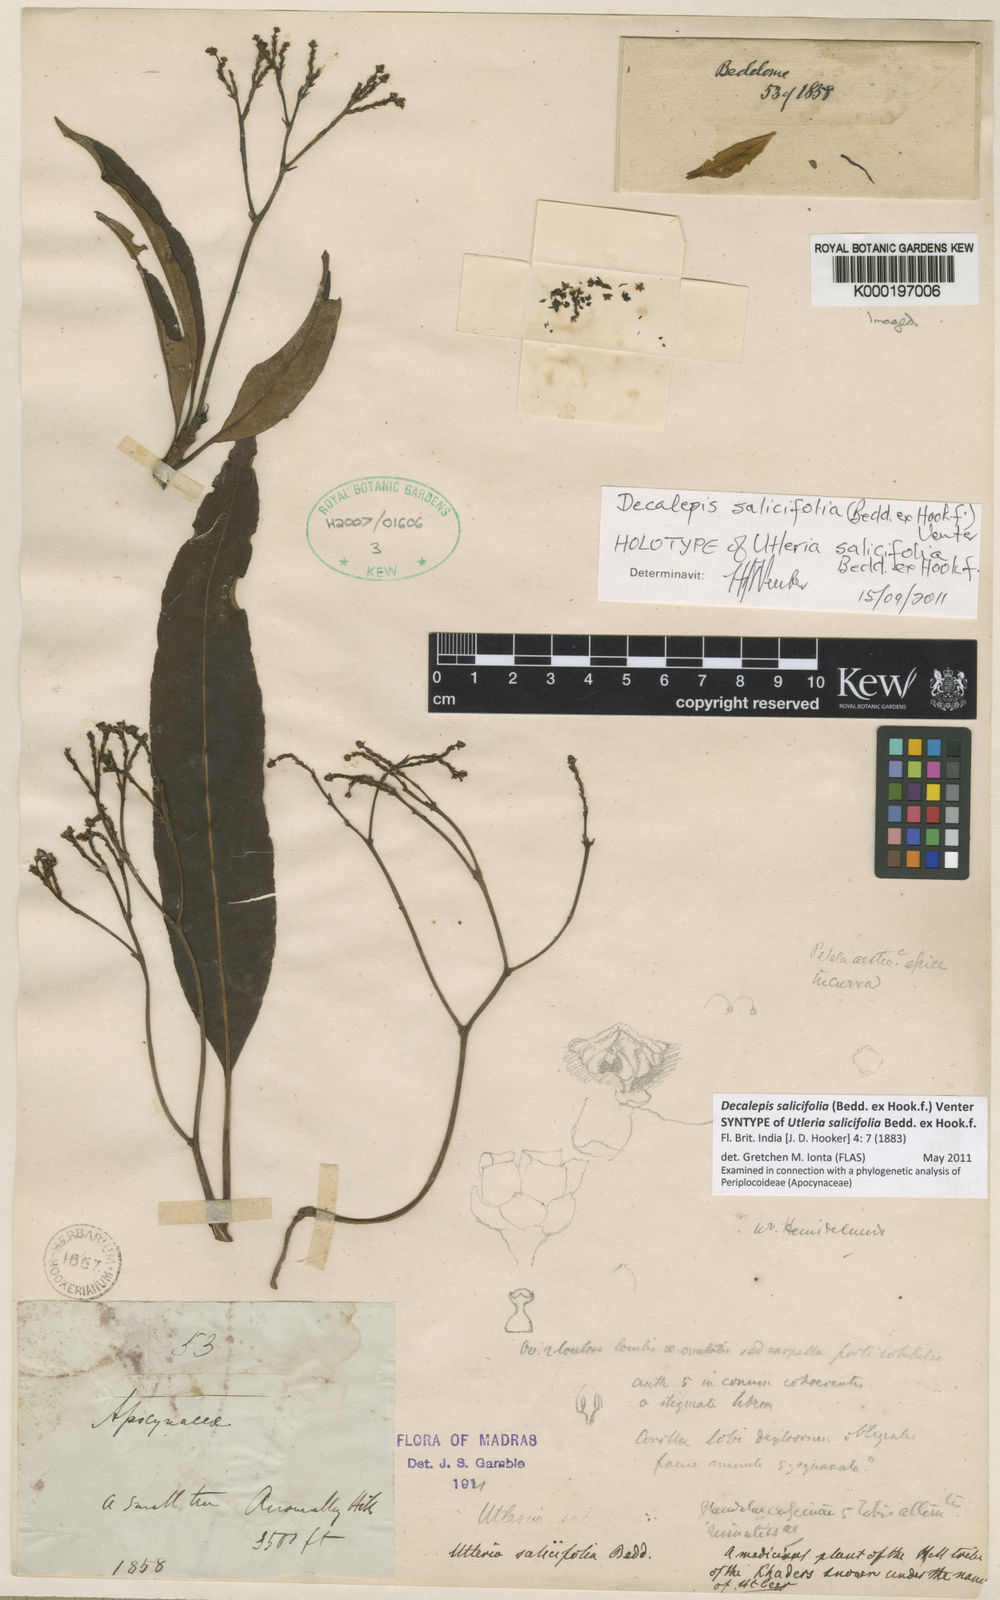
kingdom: Plantae
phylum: Tracheophyta
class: Magnoliopsida
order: Gentianales
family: Apocynaceae
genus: Decalepis
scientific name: Decalepis
